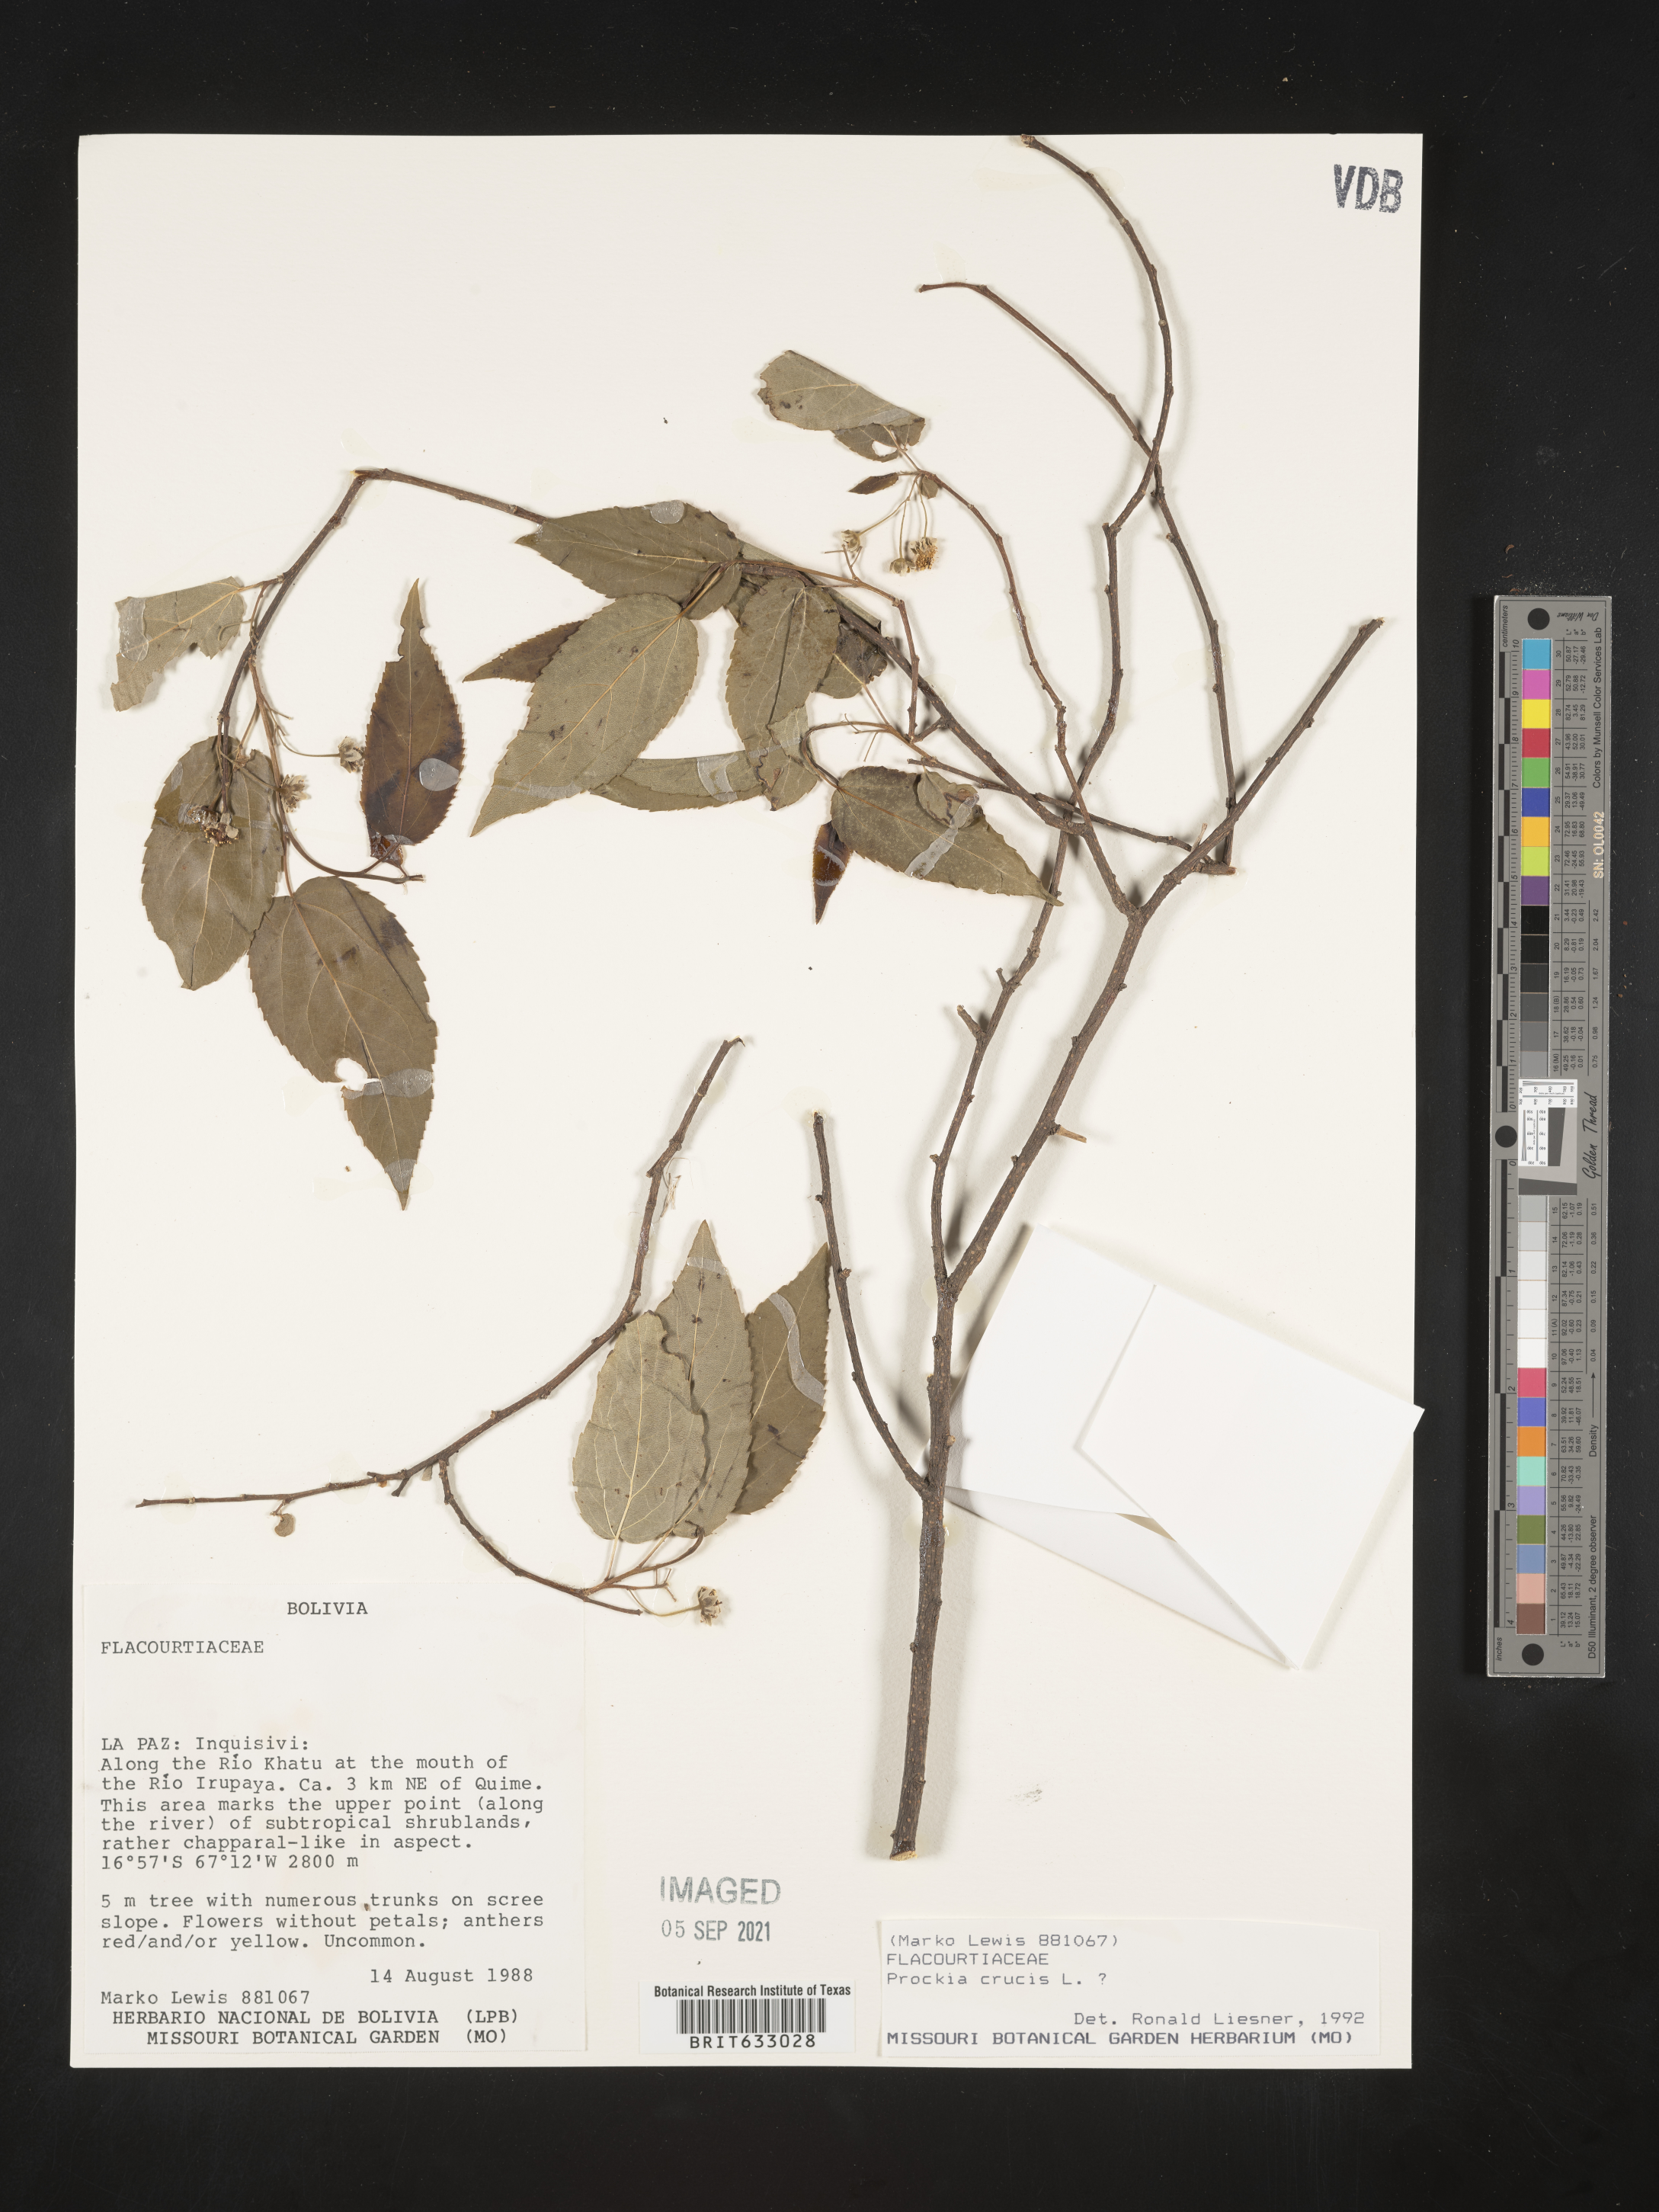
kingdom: Plantae
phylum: Tracheophyta
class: Magnoliopsida
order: Malpighiales
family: Salicaceae
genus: Prockia
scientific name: Prockia
